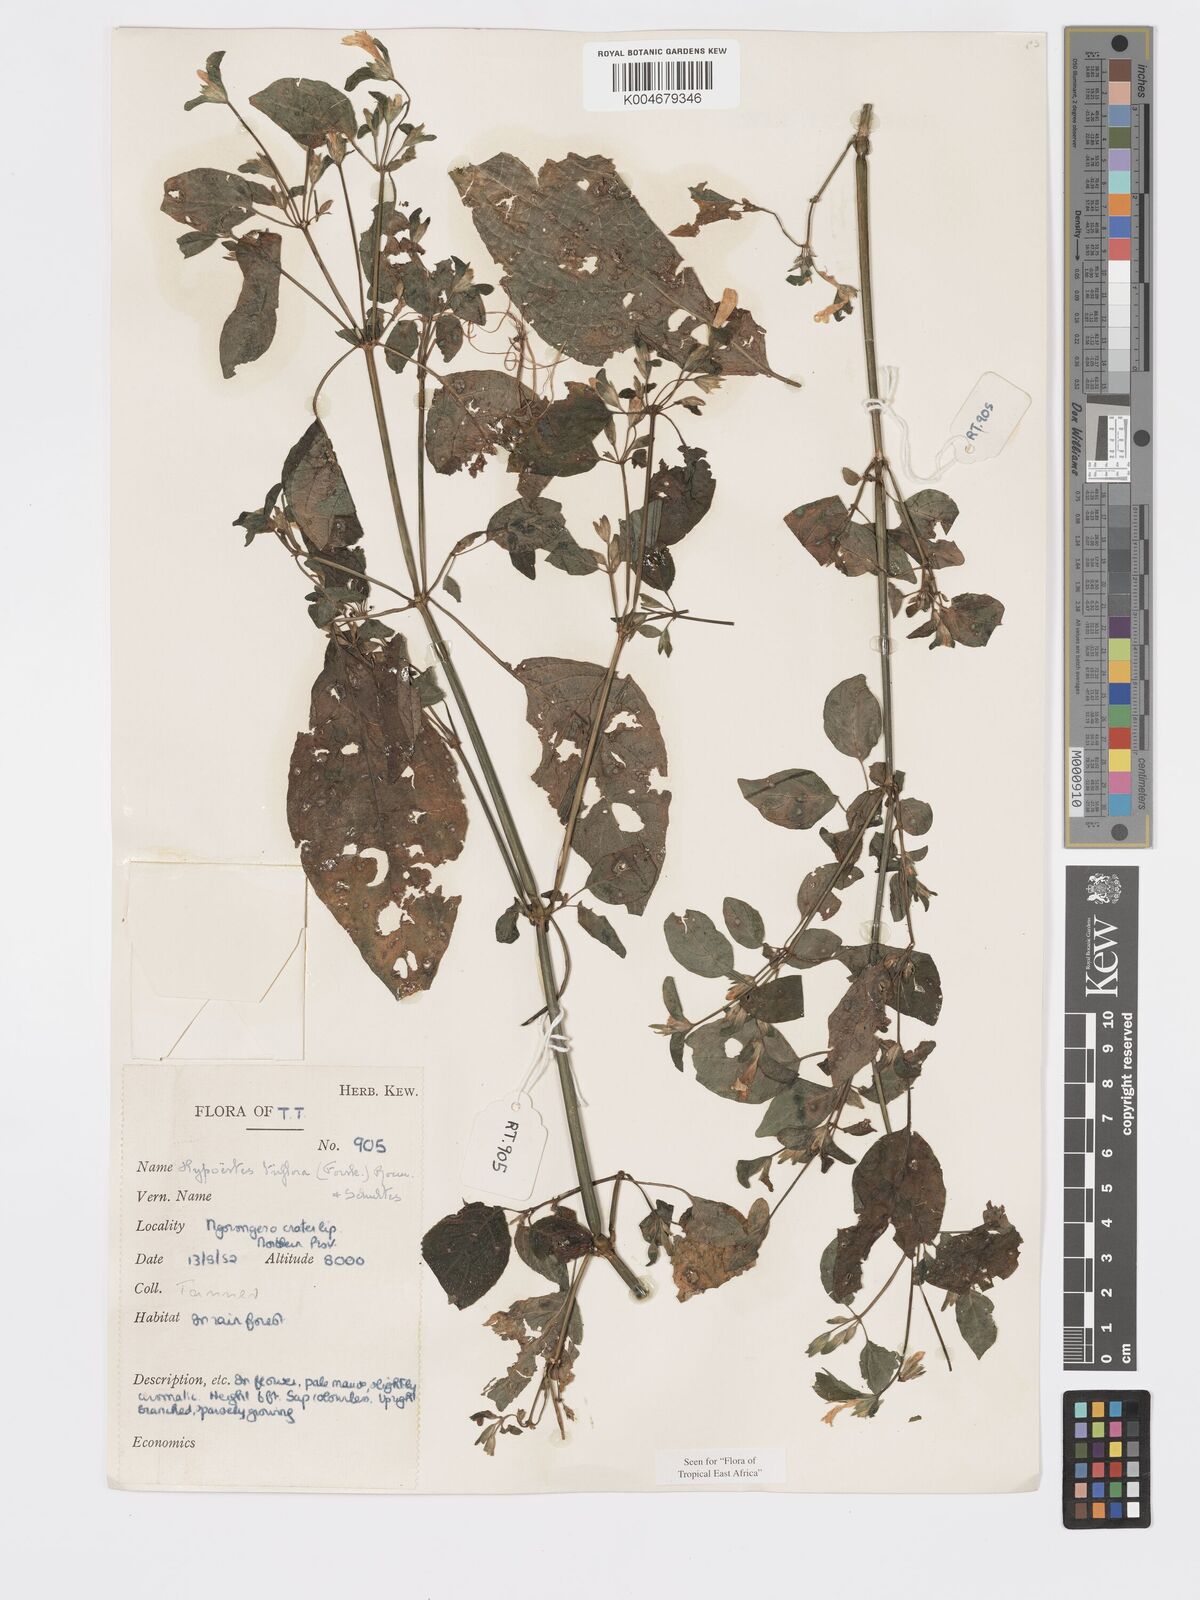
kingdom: Plantae
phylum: Tracheophyta
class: Magnoliopsida
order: Lamiales
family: Acanthaceae
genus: Hypoestes
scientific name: Hypoestes triflora
